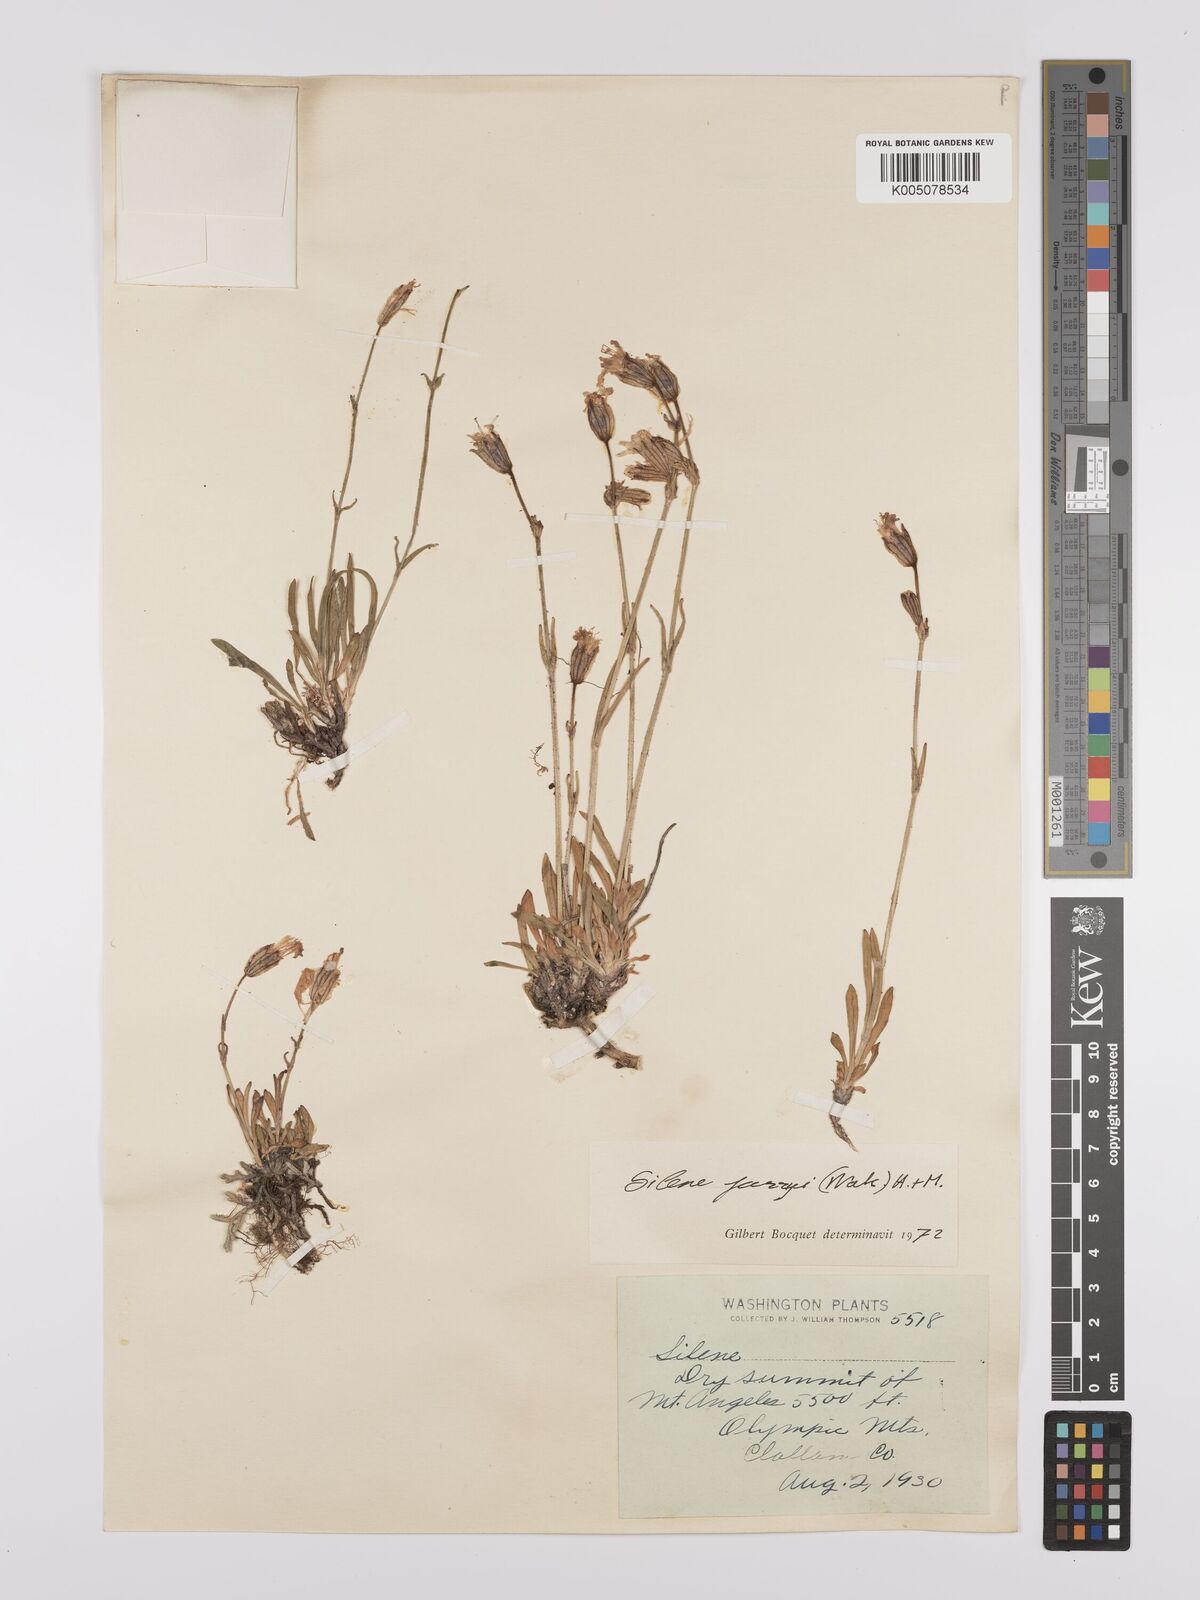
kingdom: Plantae
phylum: Tracheophyta
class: Magnoliopsida
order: Caryophyllales
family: Caryophyllaceae
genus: Silene
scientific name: Silene parryi
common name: Parry's campion
